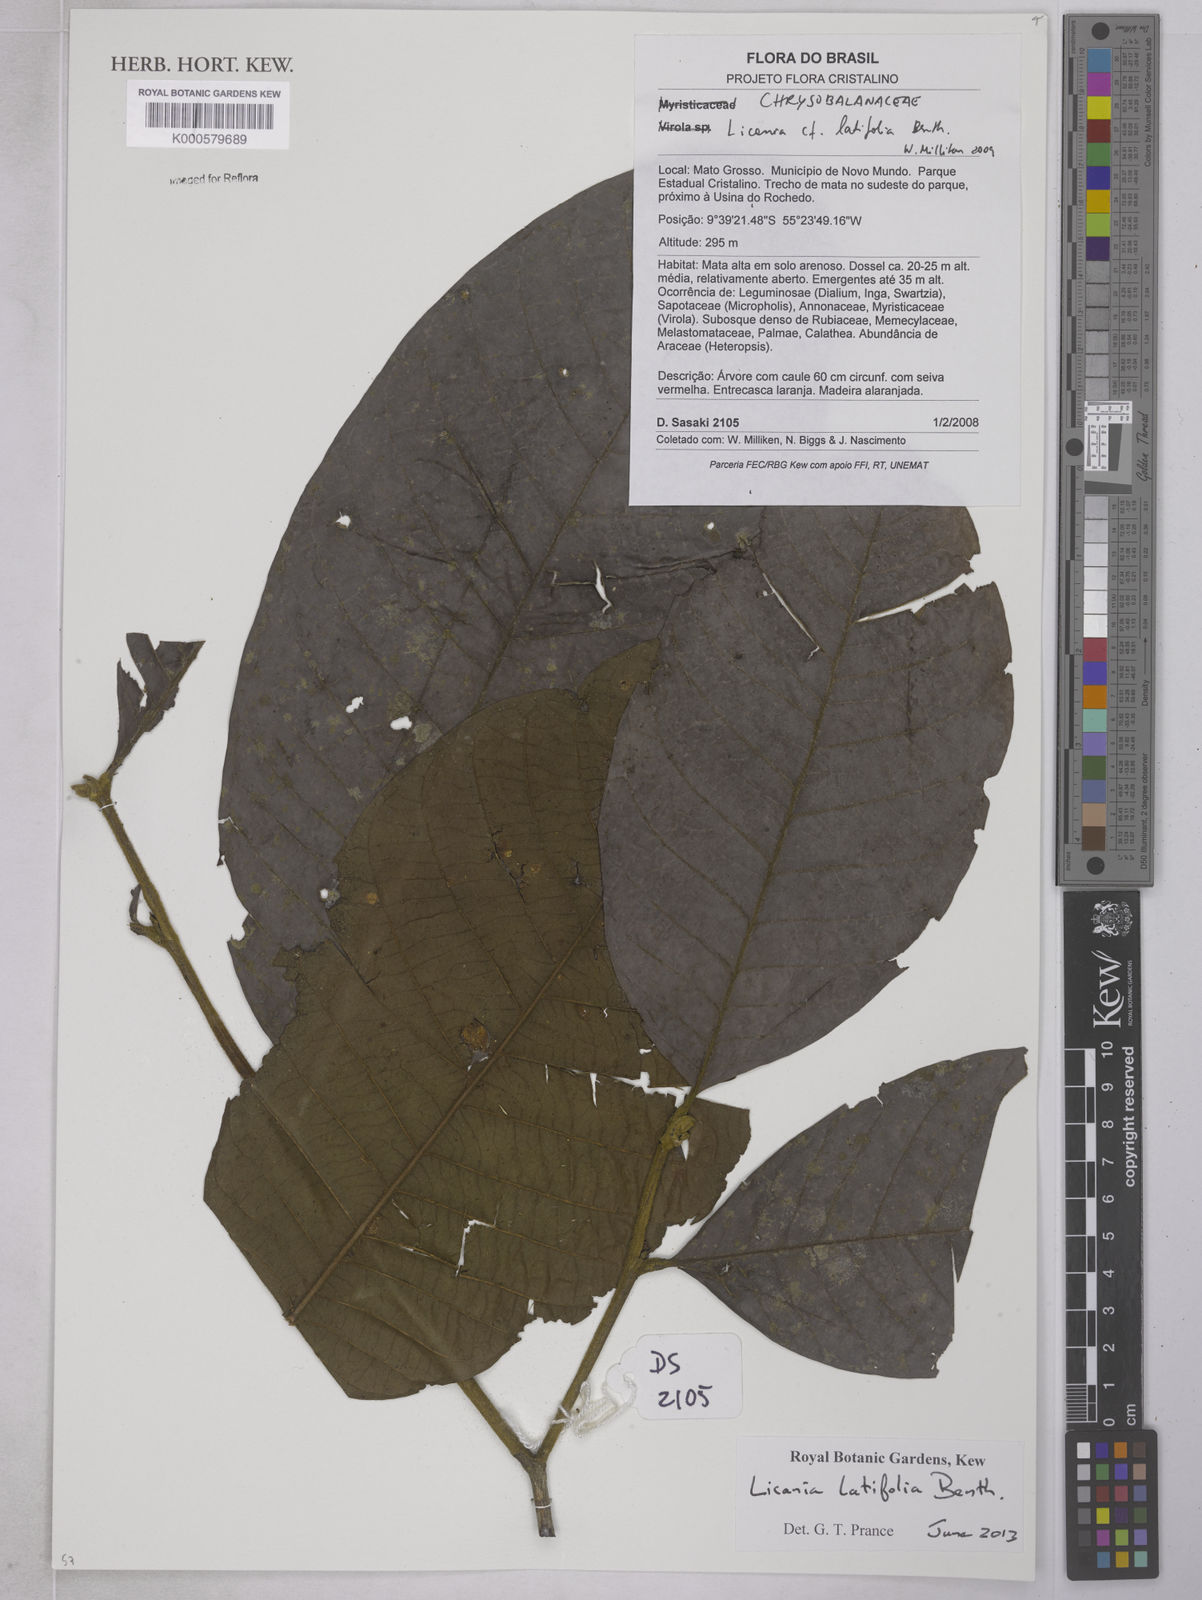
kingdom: Plantae
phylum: Tracheophyta
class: Magnoliopsida
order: Malpighiales
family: Chrysobalanaceae
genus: Licania
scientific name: Licania
